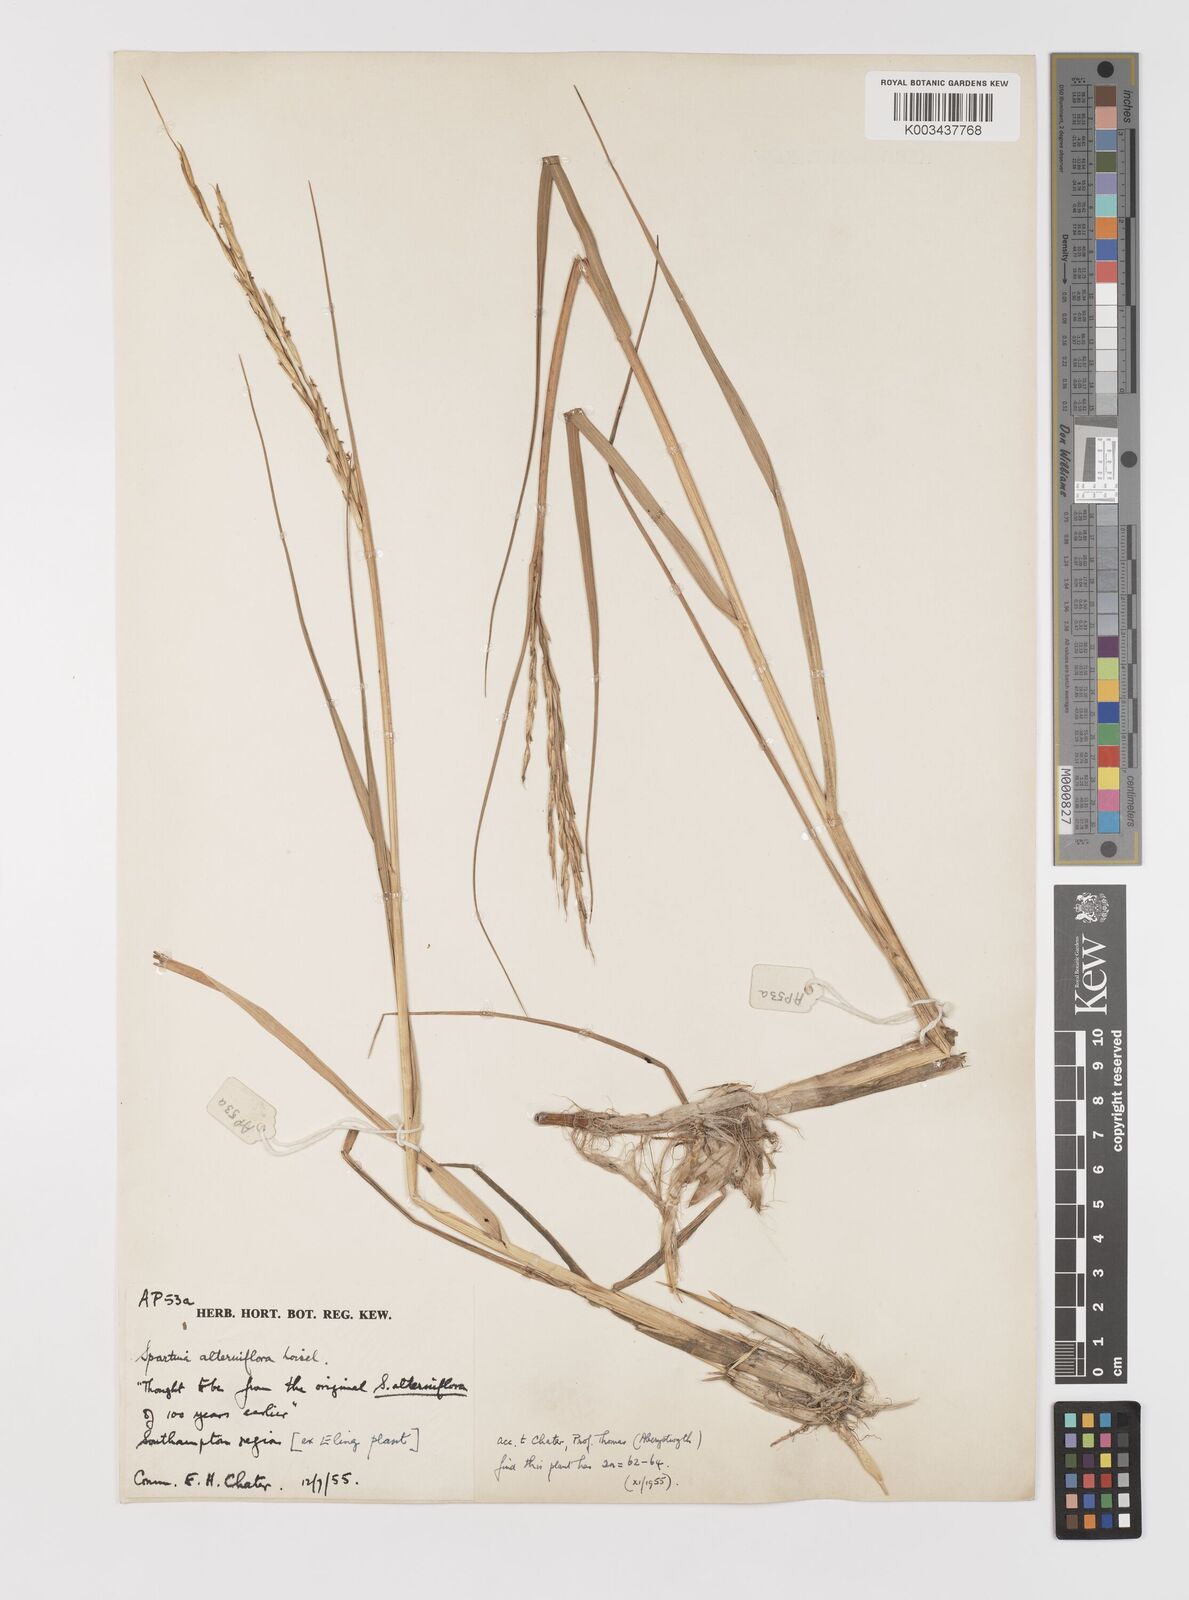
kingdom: Plantae
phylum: Tracheophyta
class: Liliopsida
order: Poales
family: Poaceae
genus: Sporobolus
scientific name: Sporobolus alterniflorus
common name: Atlantic cordgrass
